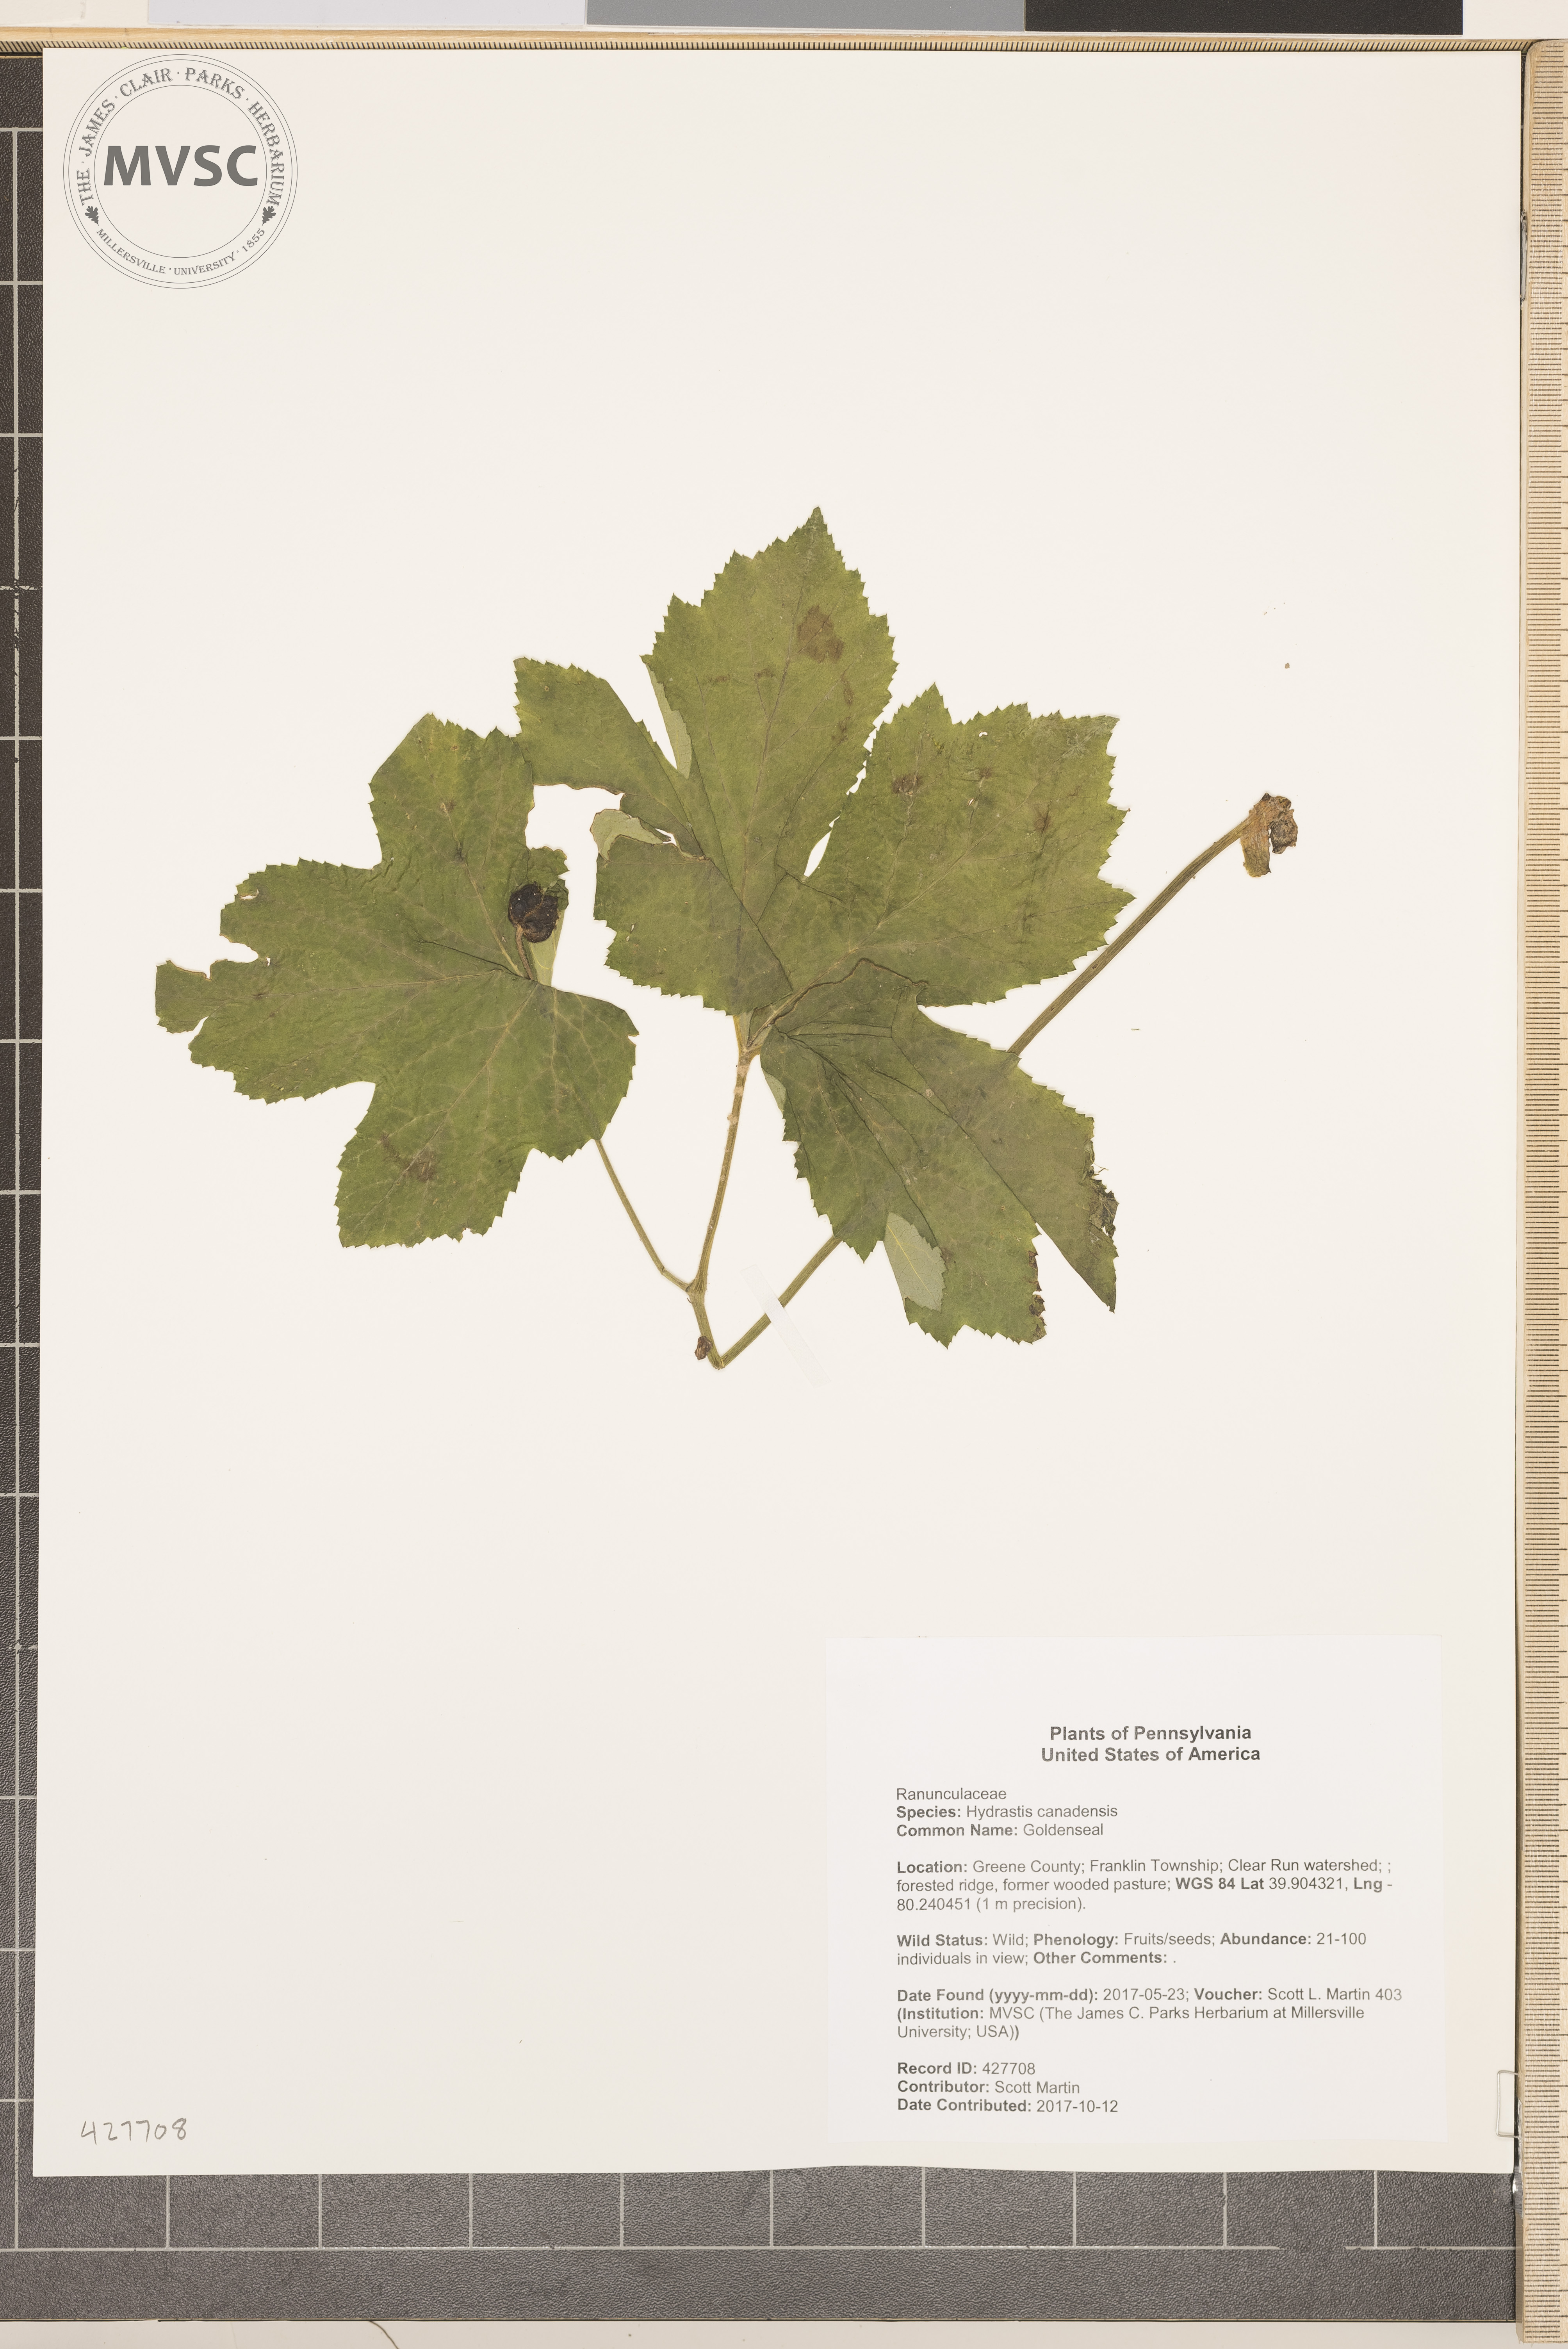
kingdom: Plantae
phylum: Tracheophyta
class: Magnoliopsida
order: Ranunculales
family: Ranunculaceae
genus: Hydrastis
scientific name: Hydrastis canadensis
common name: Goldenseal
